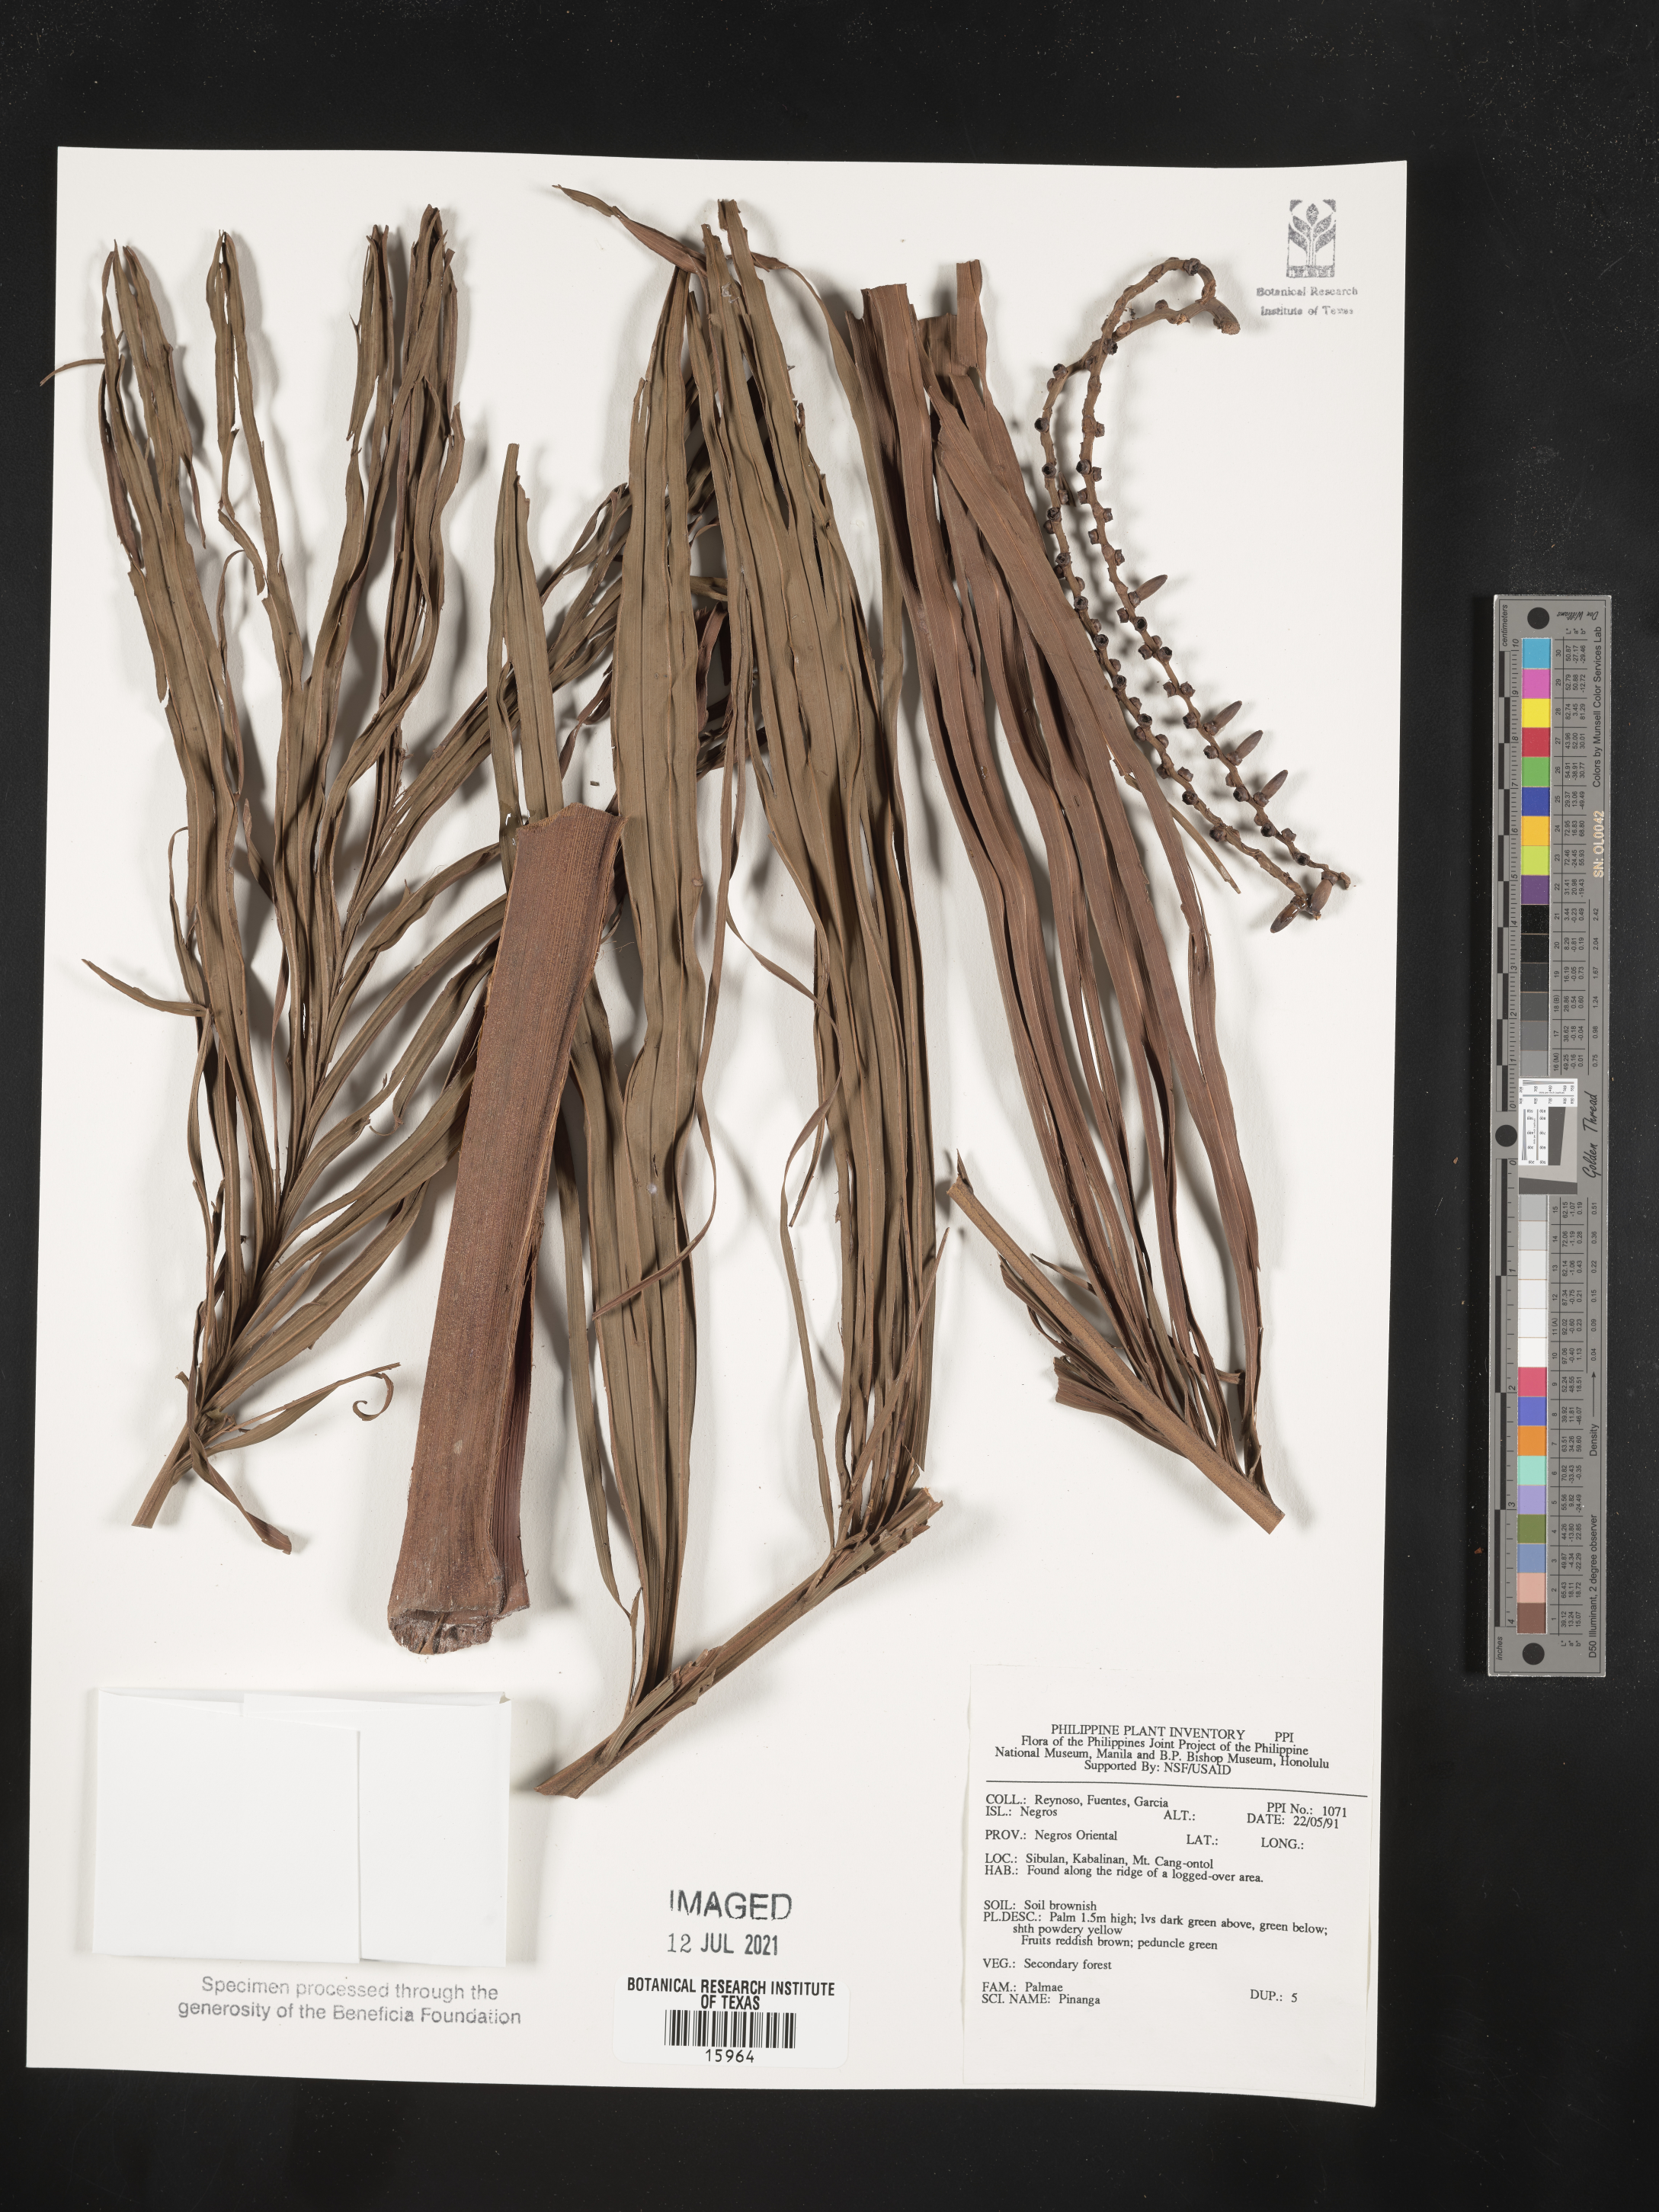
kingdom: Plantae
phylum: Tracheophyta
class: Liliopsida
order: Arecales
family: Arecaceae
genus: Pinanga
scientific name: Pinanga
